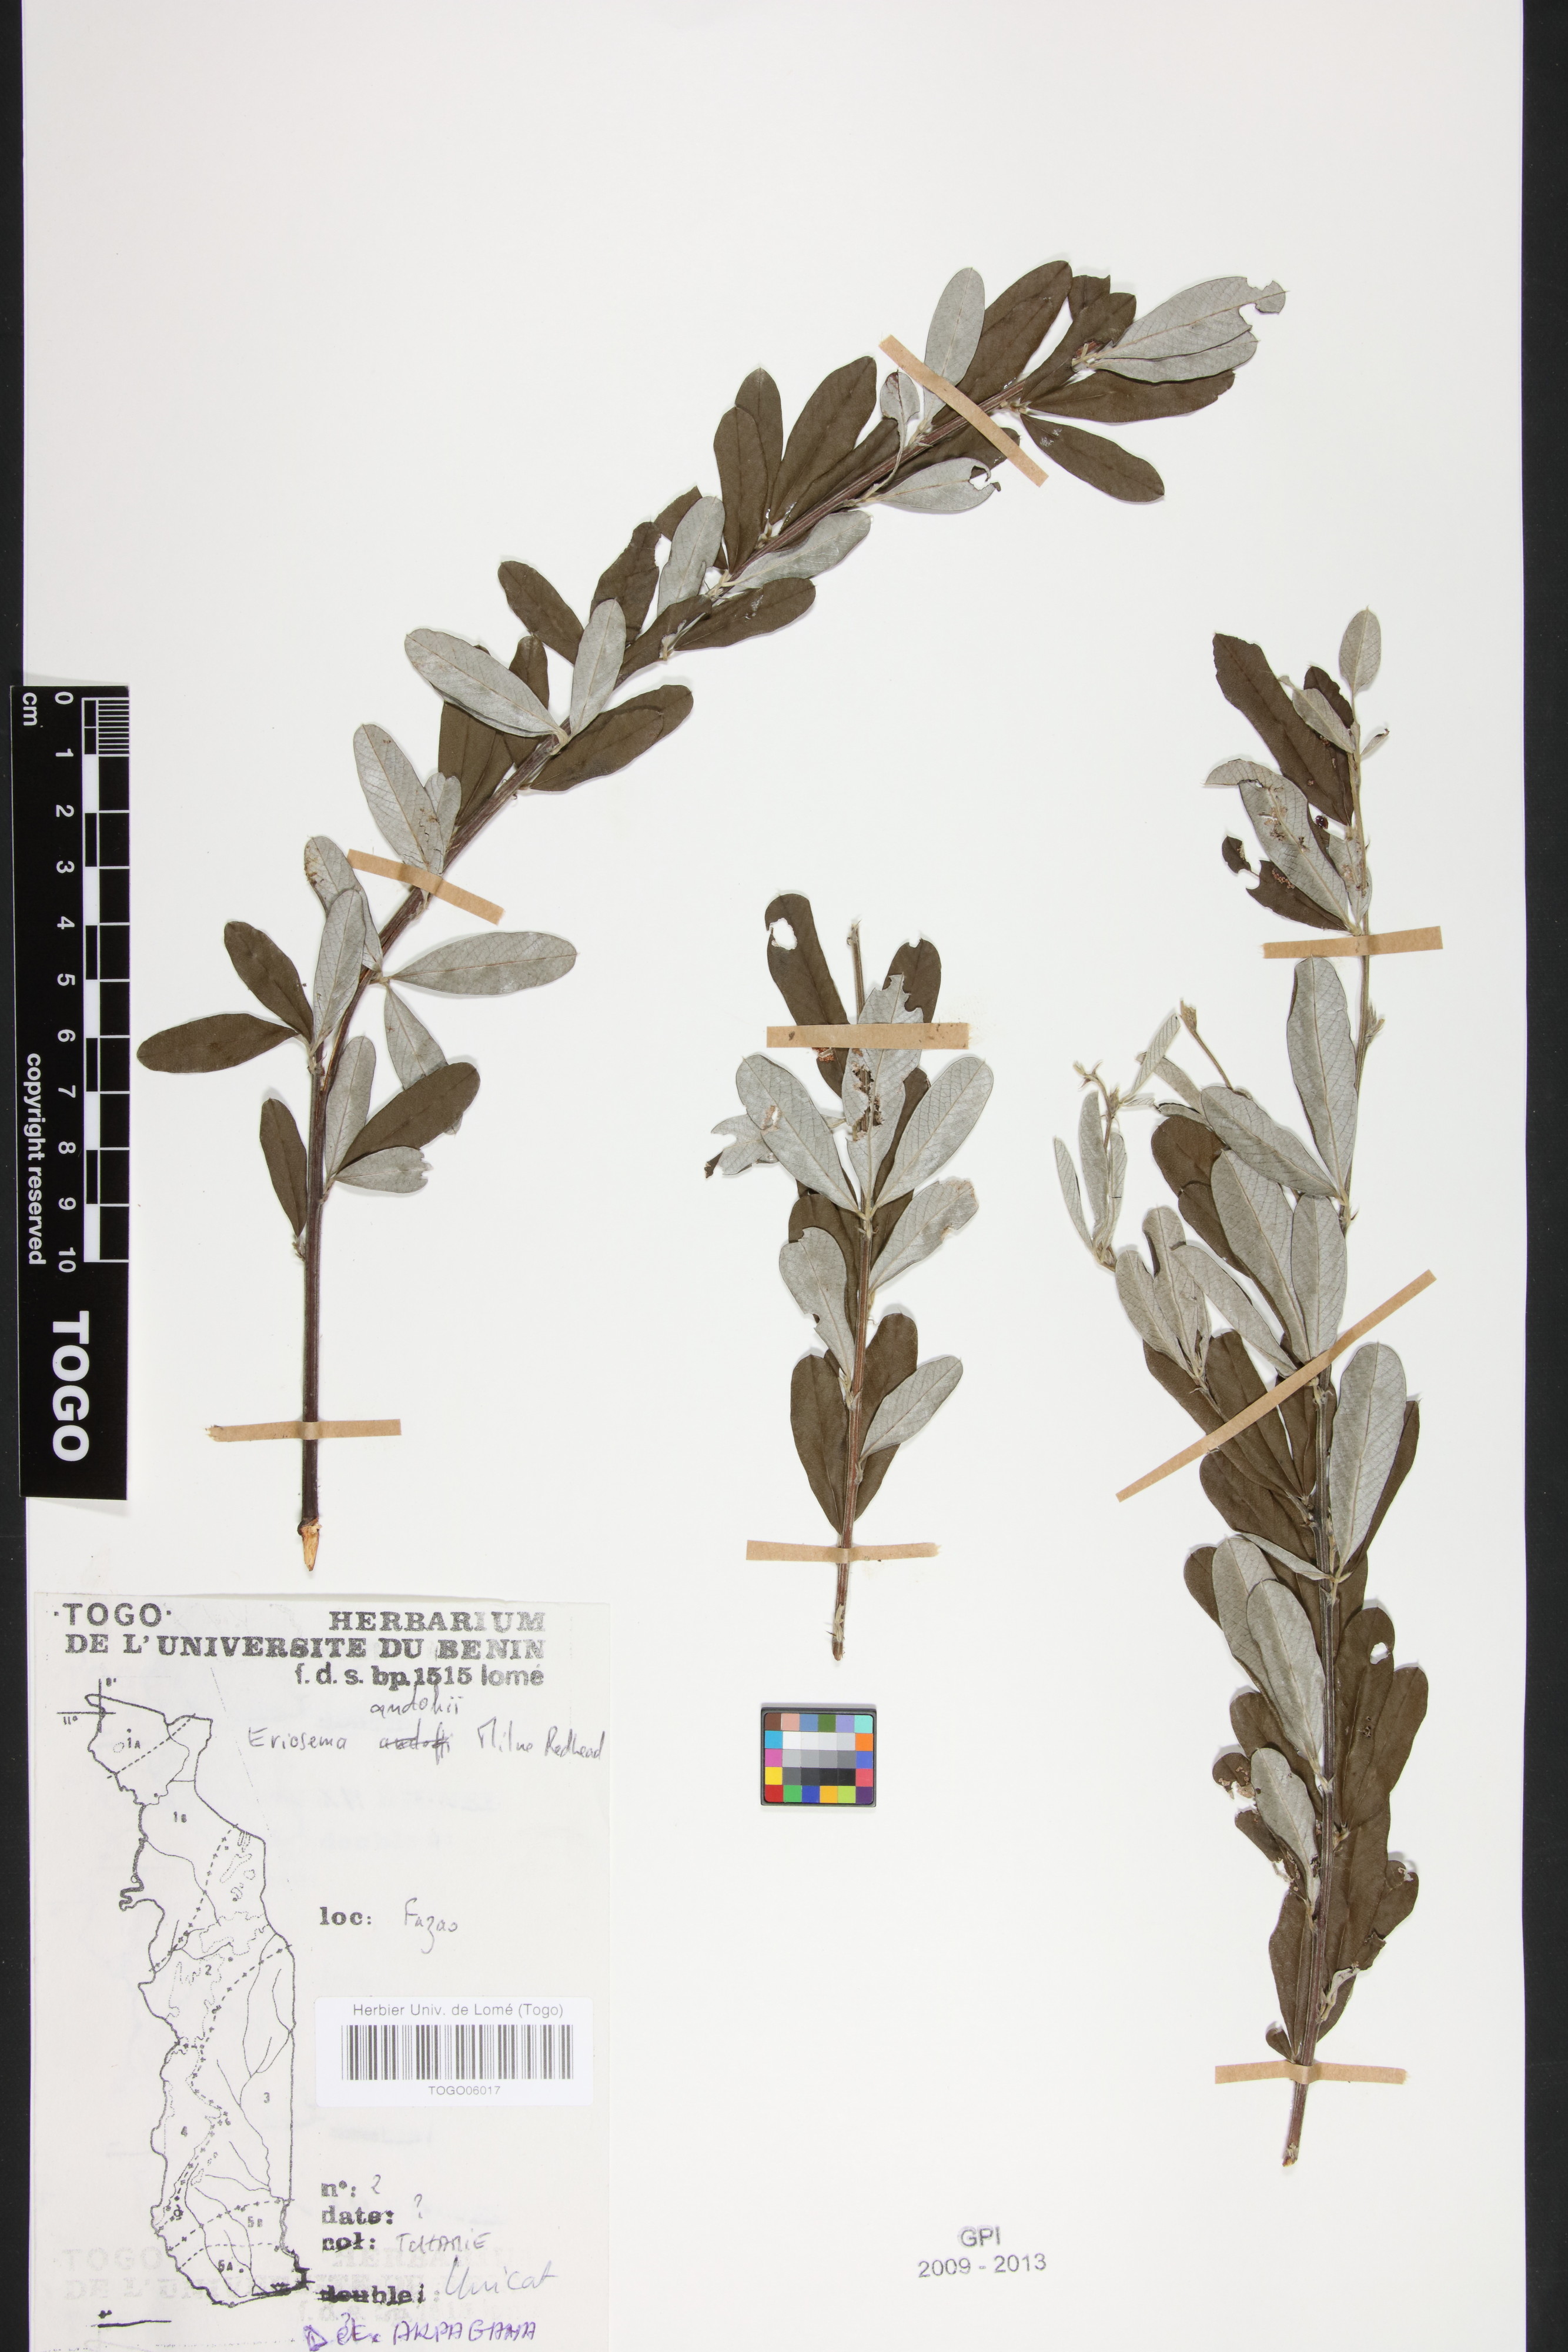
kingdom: Plantae
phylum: Tracheophyta
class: Magnoliopsida
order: Fabales
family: Fabaceae
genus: Eriosema
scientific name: Eriosema andohii
